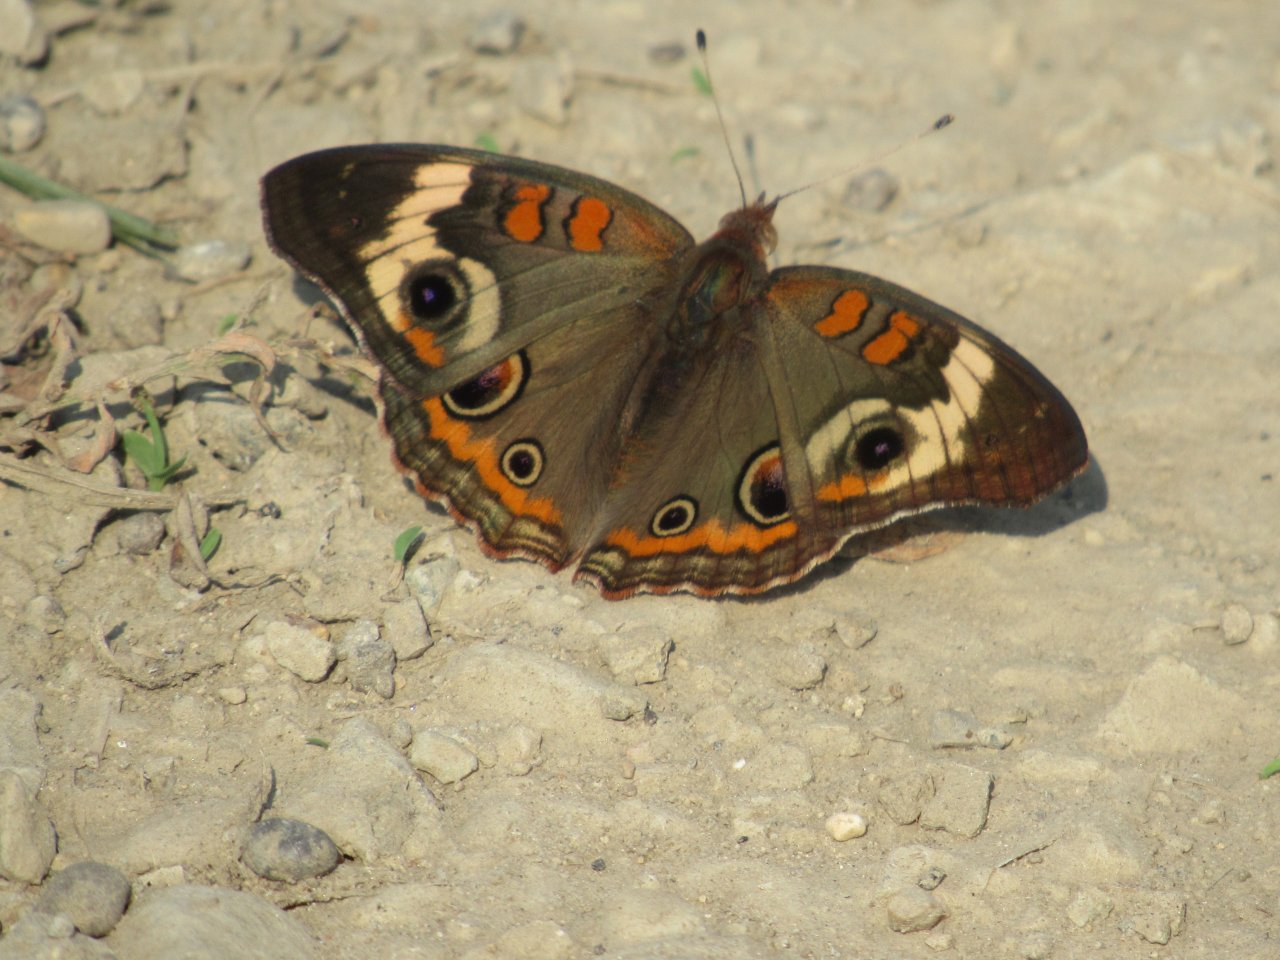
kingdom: Animalia
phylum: Arthropoda
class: Insecta
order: Lepidoptera
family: Nymphalidae
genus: Junonia
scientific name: Junonia coenia
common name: Common Buckeye
